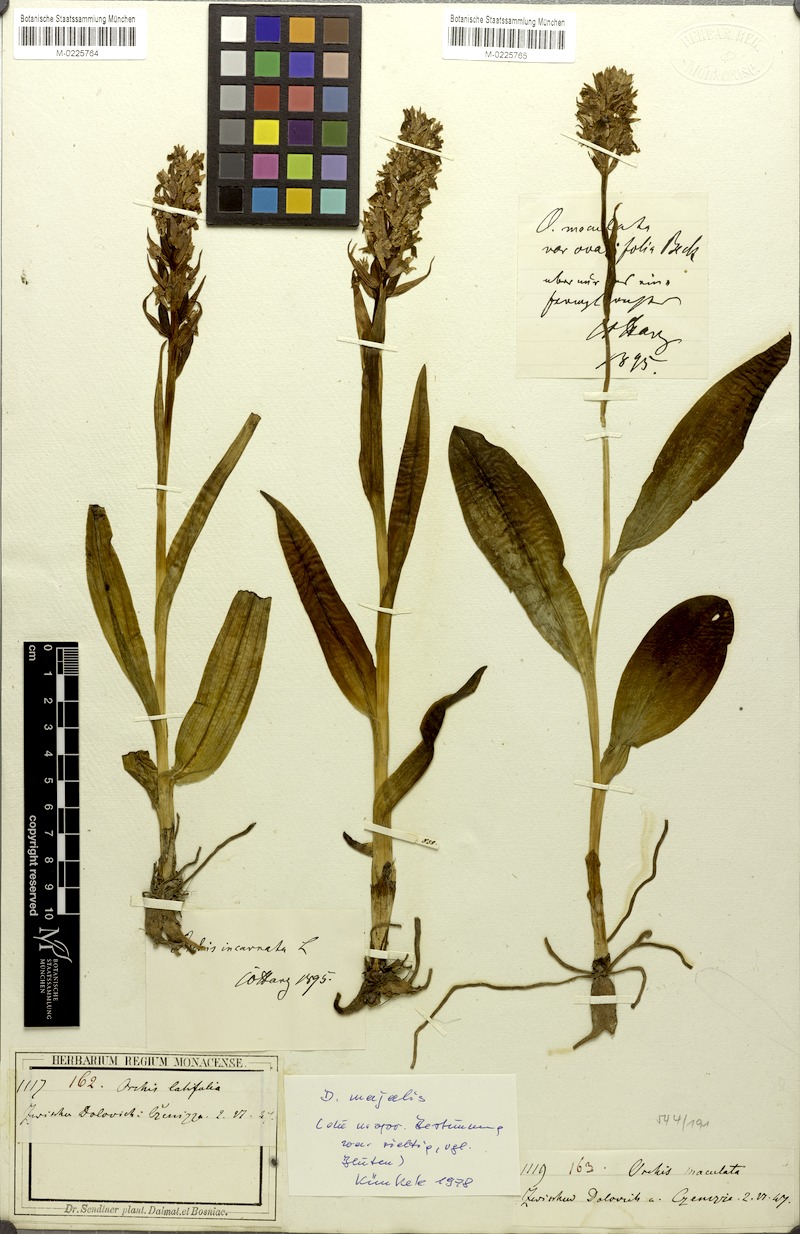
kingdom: Plantae
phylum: Tracheophyta
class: Liliopsida
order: Asparagales
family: Orchidaceae
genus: Dactylorhiza
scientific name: Dactylorhiza majalis
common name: Marsh orchid
